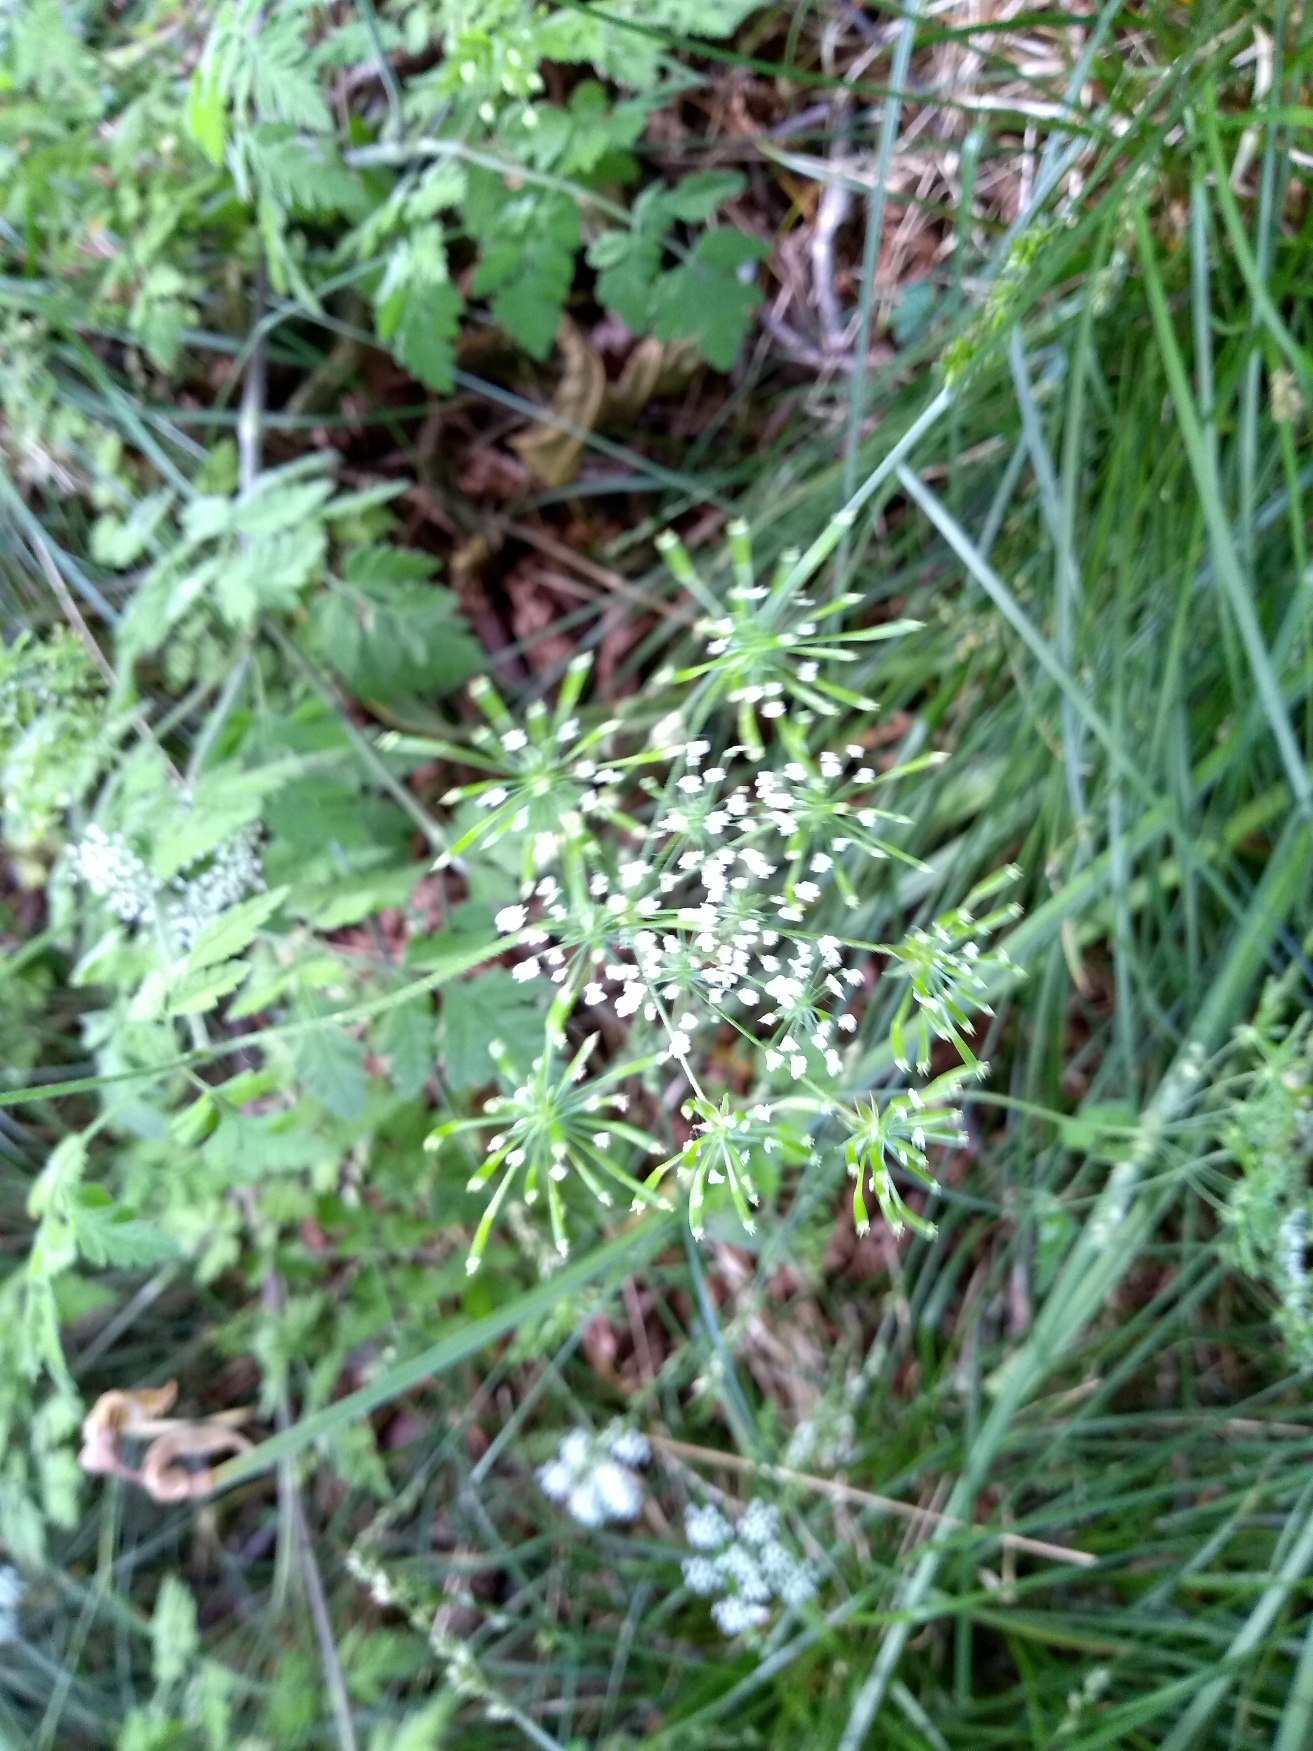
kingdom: Plantae
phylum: Tracheophyta
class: Magnoliopsida
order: Apiales
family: Apiaceae
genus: Chaerophyllum
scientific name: Chaerophyllum temulum
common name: Almindelig hulsvøb
